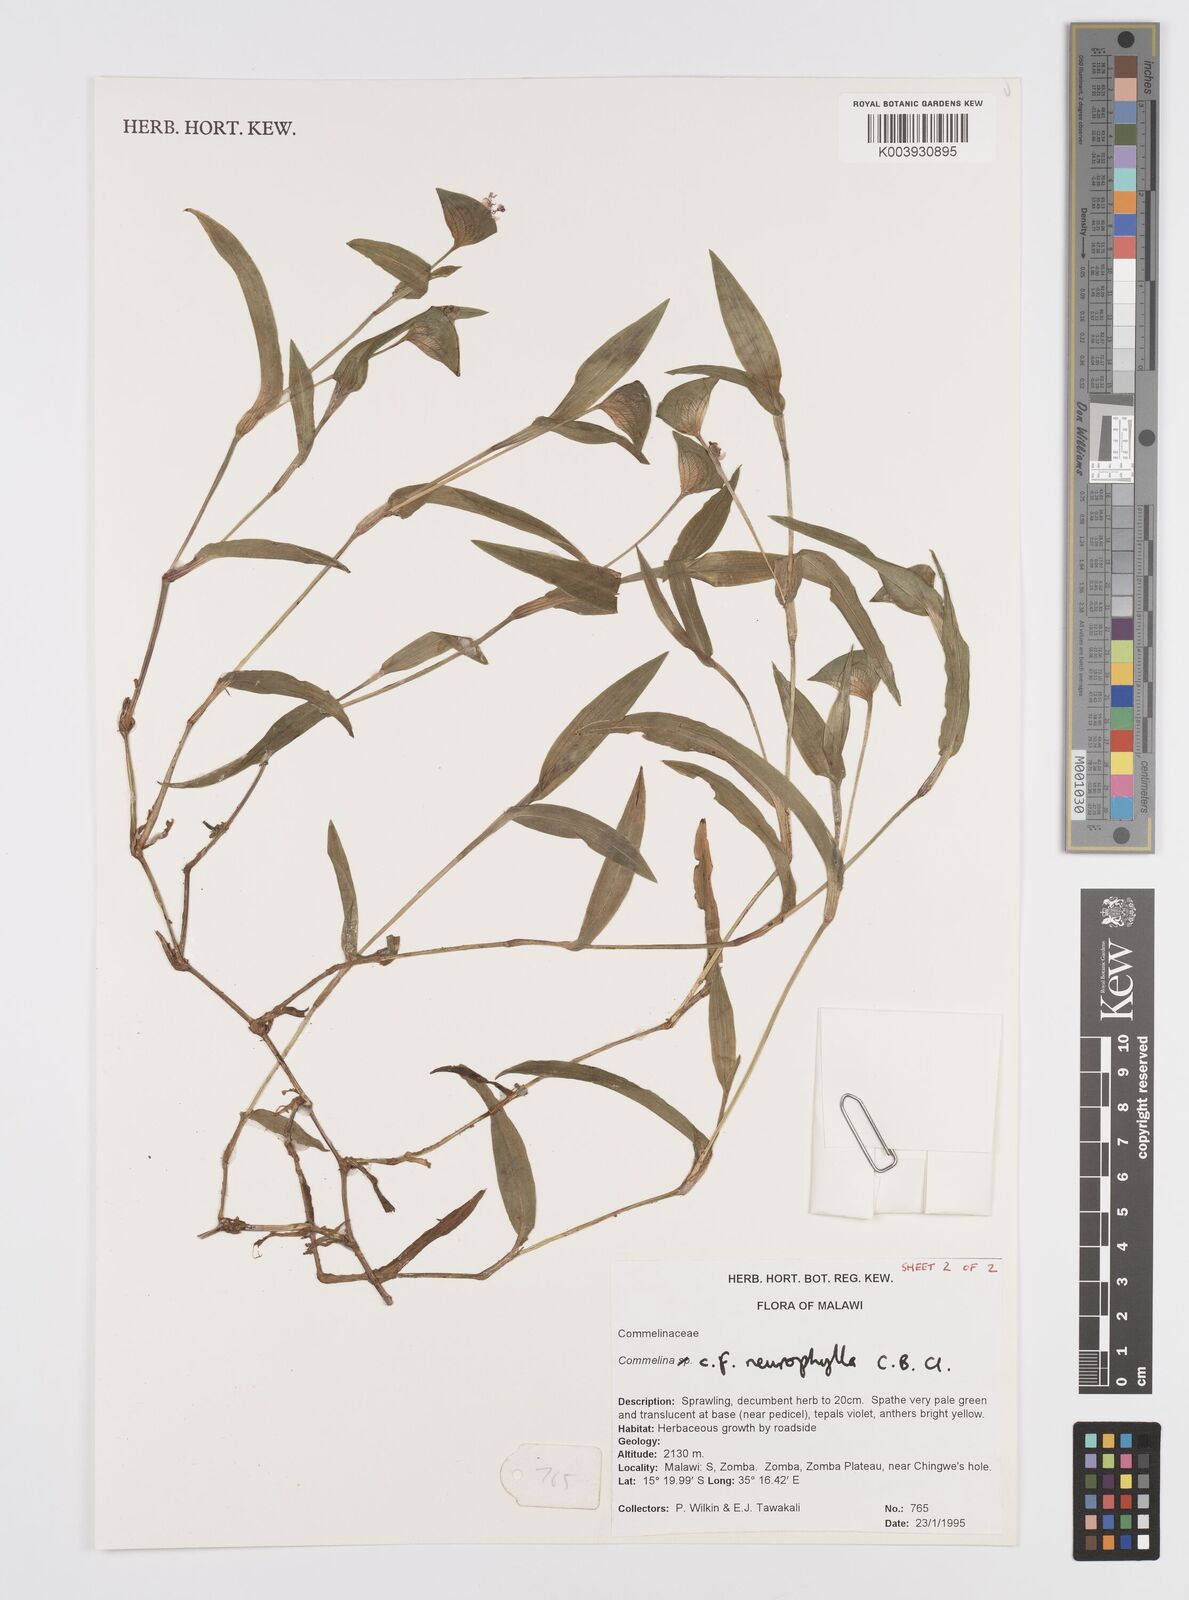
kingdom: Plantae
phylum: Tracheophyta
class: Liliopsida
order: Commelinales
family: Commelinaceae
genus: Commelina
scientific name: Commelina neurophylla
